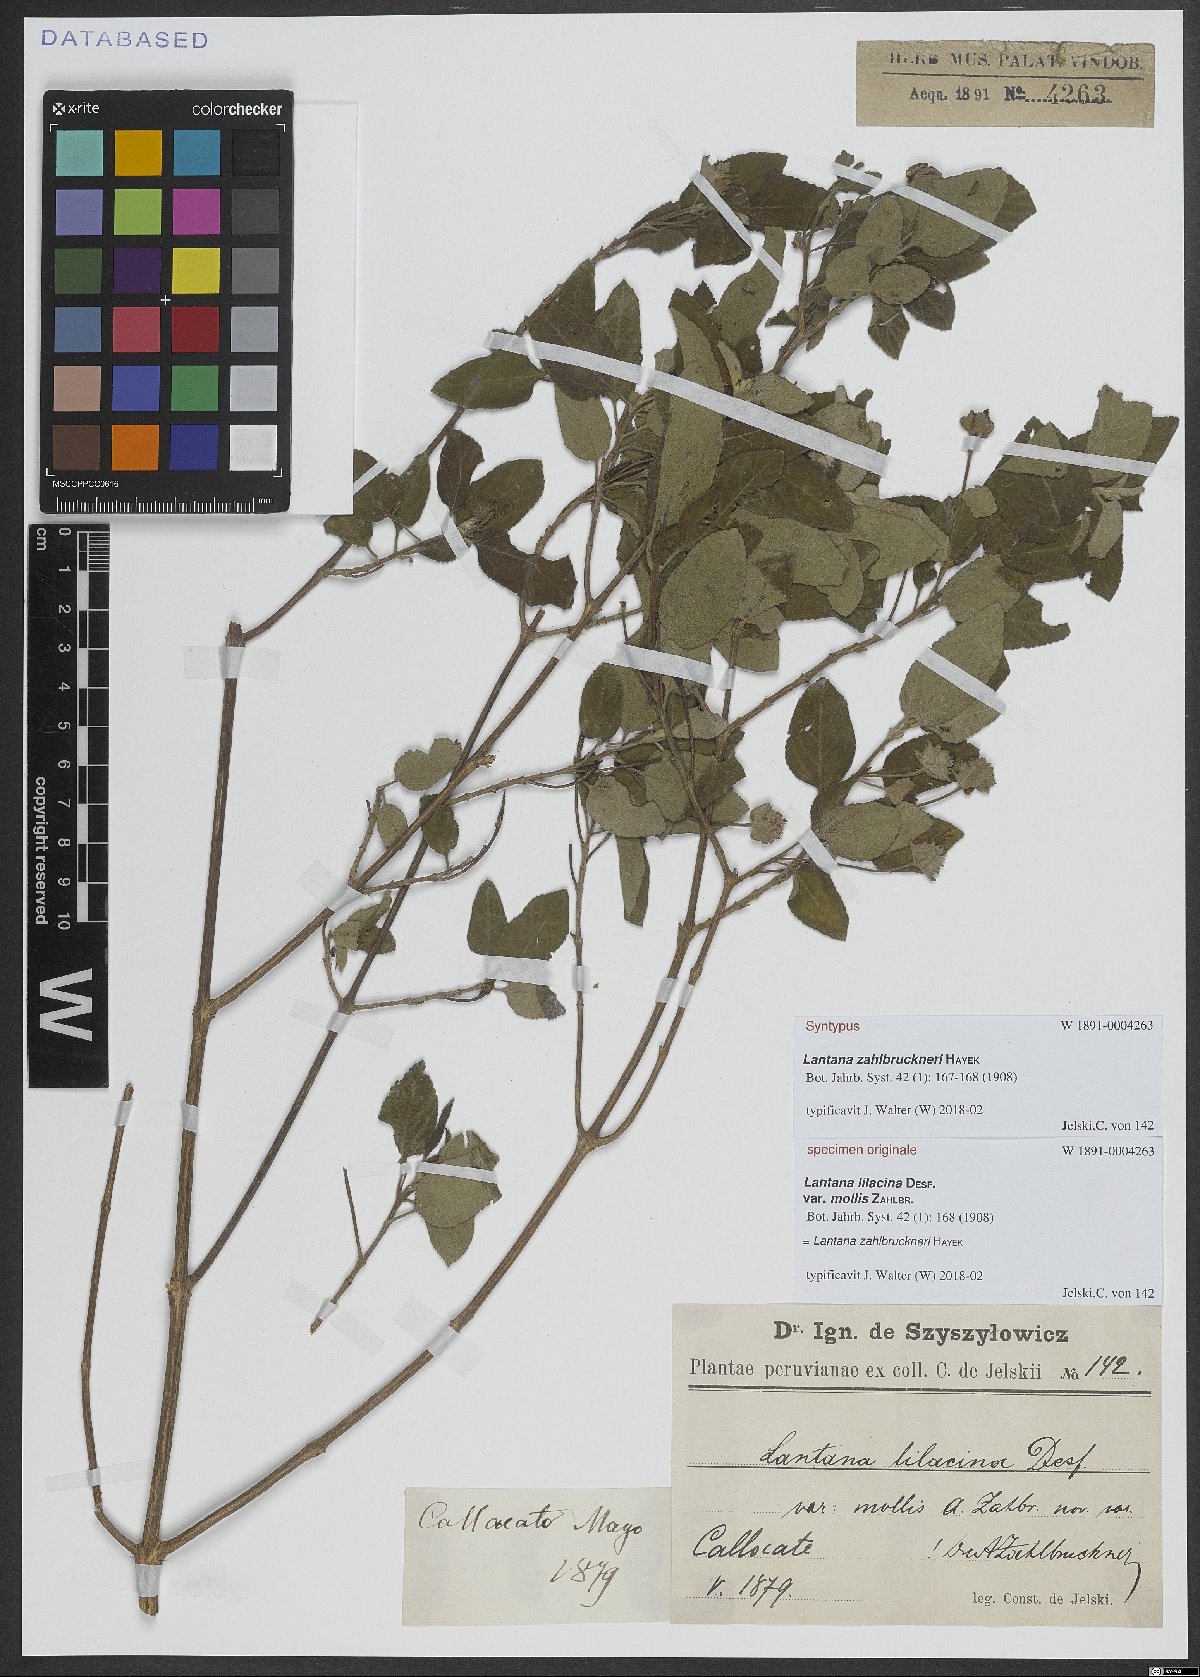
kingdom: Plantae
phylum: Tracheophyta
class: Magnoliopsida
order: Lamiales
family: Verbenaceae
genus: Lantana
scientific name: Lantana zahlbruckneri
